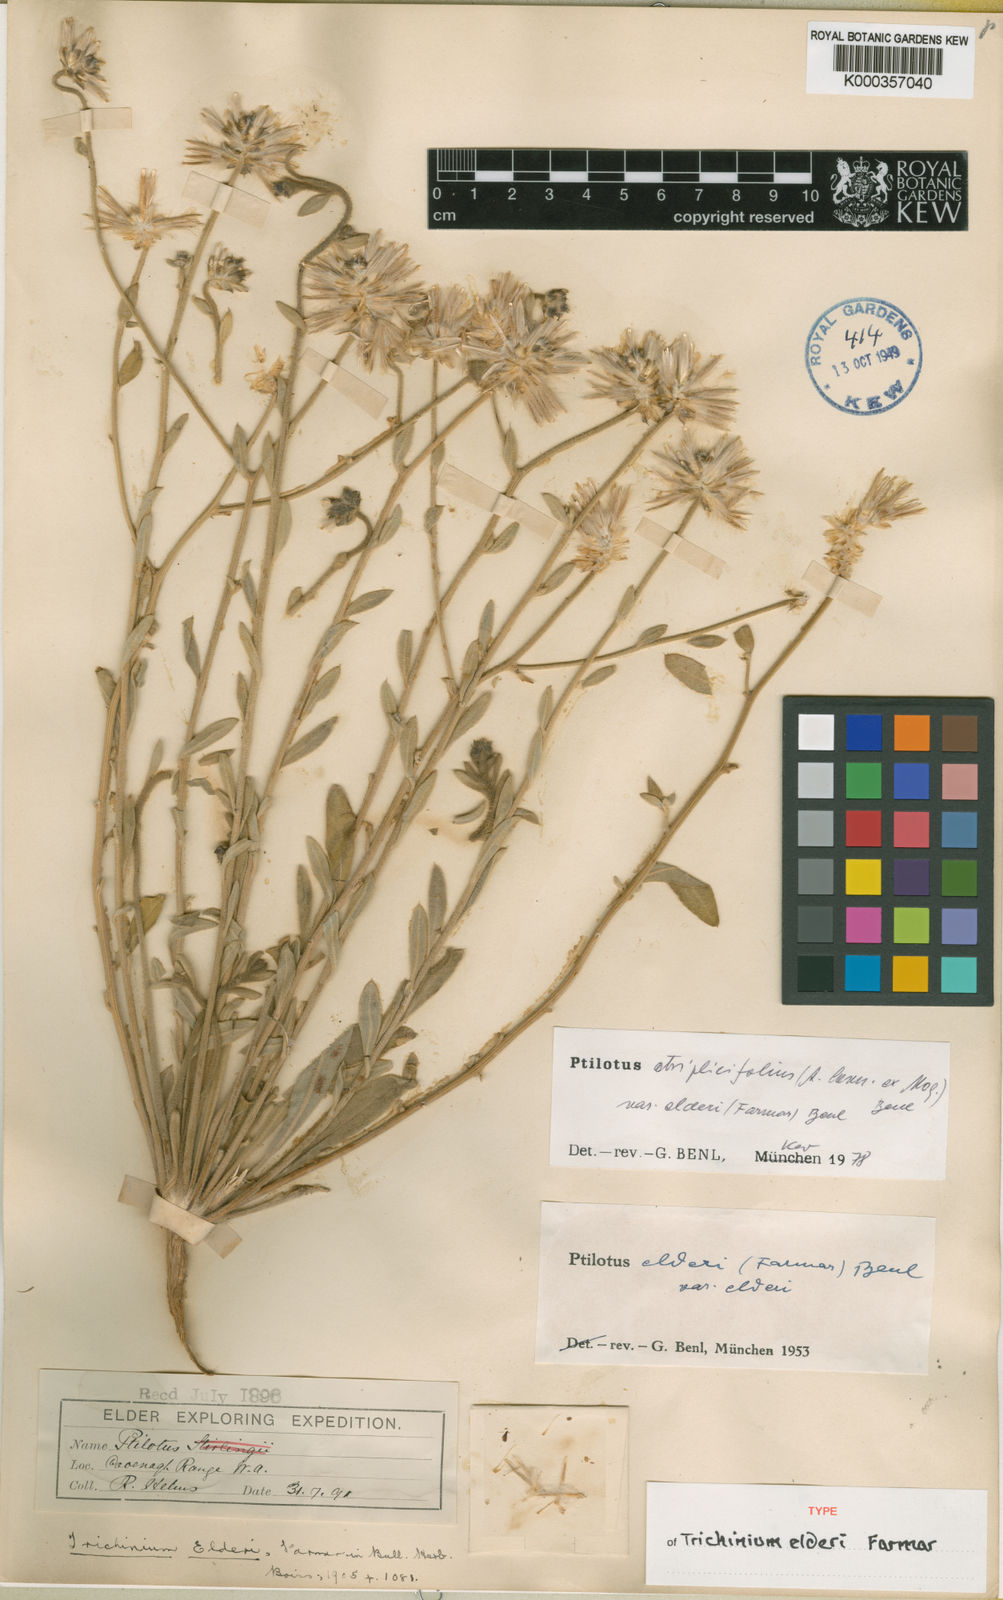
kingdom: Plantae
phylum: Tracheophyta
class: Magnoliopsida
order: Caryophyllales
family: Amaranthaceae
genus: Ptilotus
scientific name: Ptilotus sessilifolius
